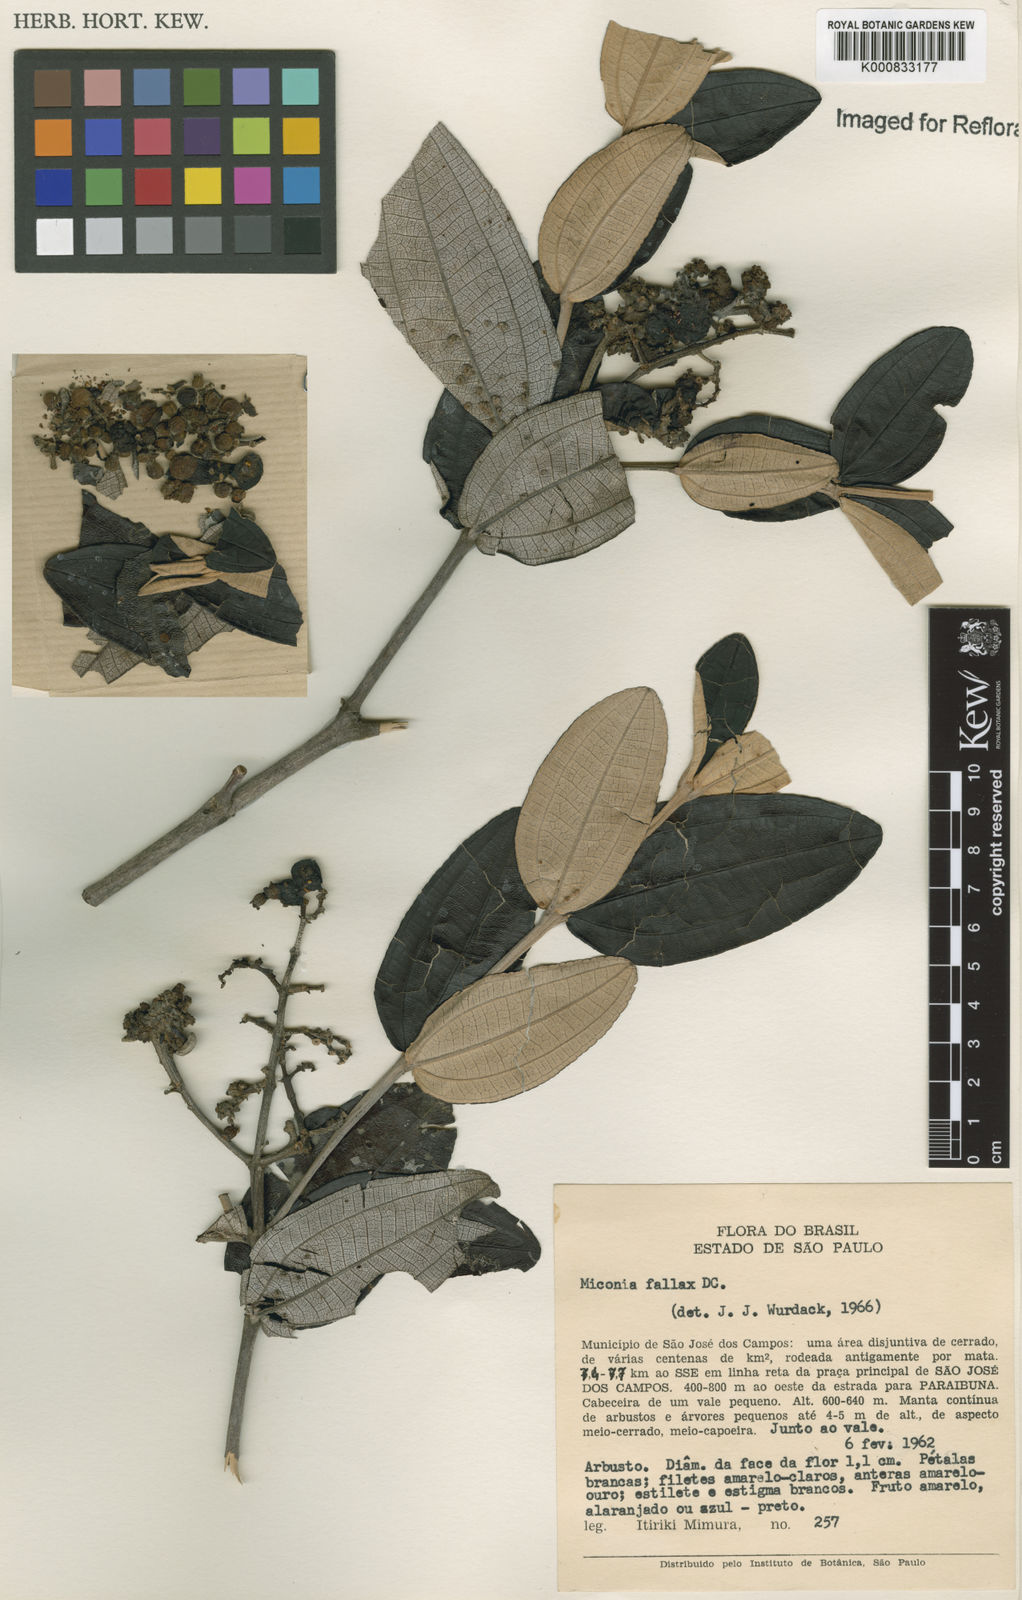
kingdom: Plantae
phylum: Tracheophyta
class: Magnoliopsida
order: Myrtales
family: Melastomataceae
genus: Miconia
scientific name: Miconia fallax
